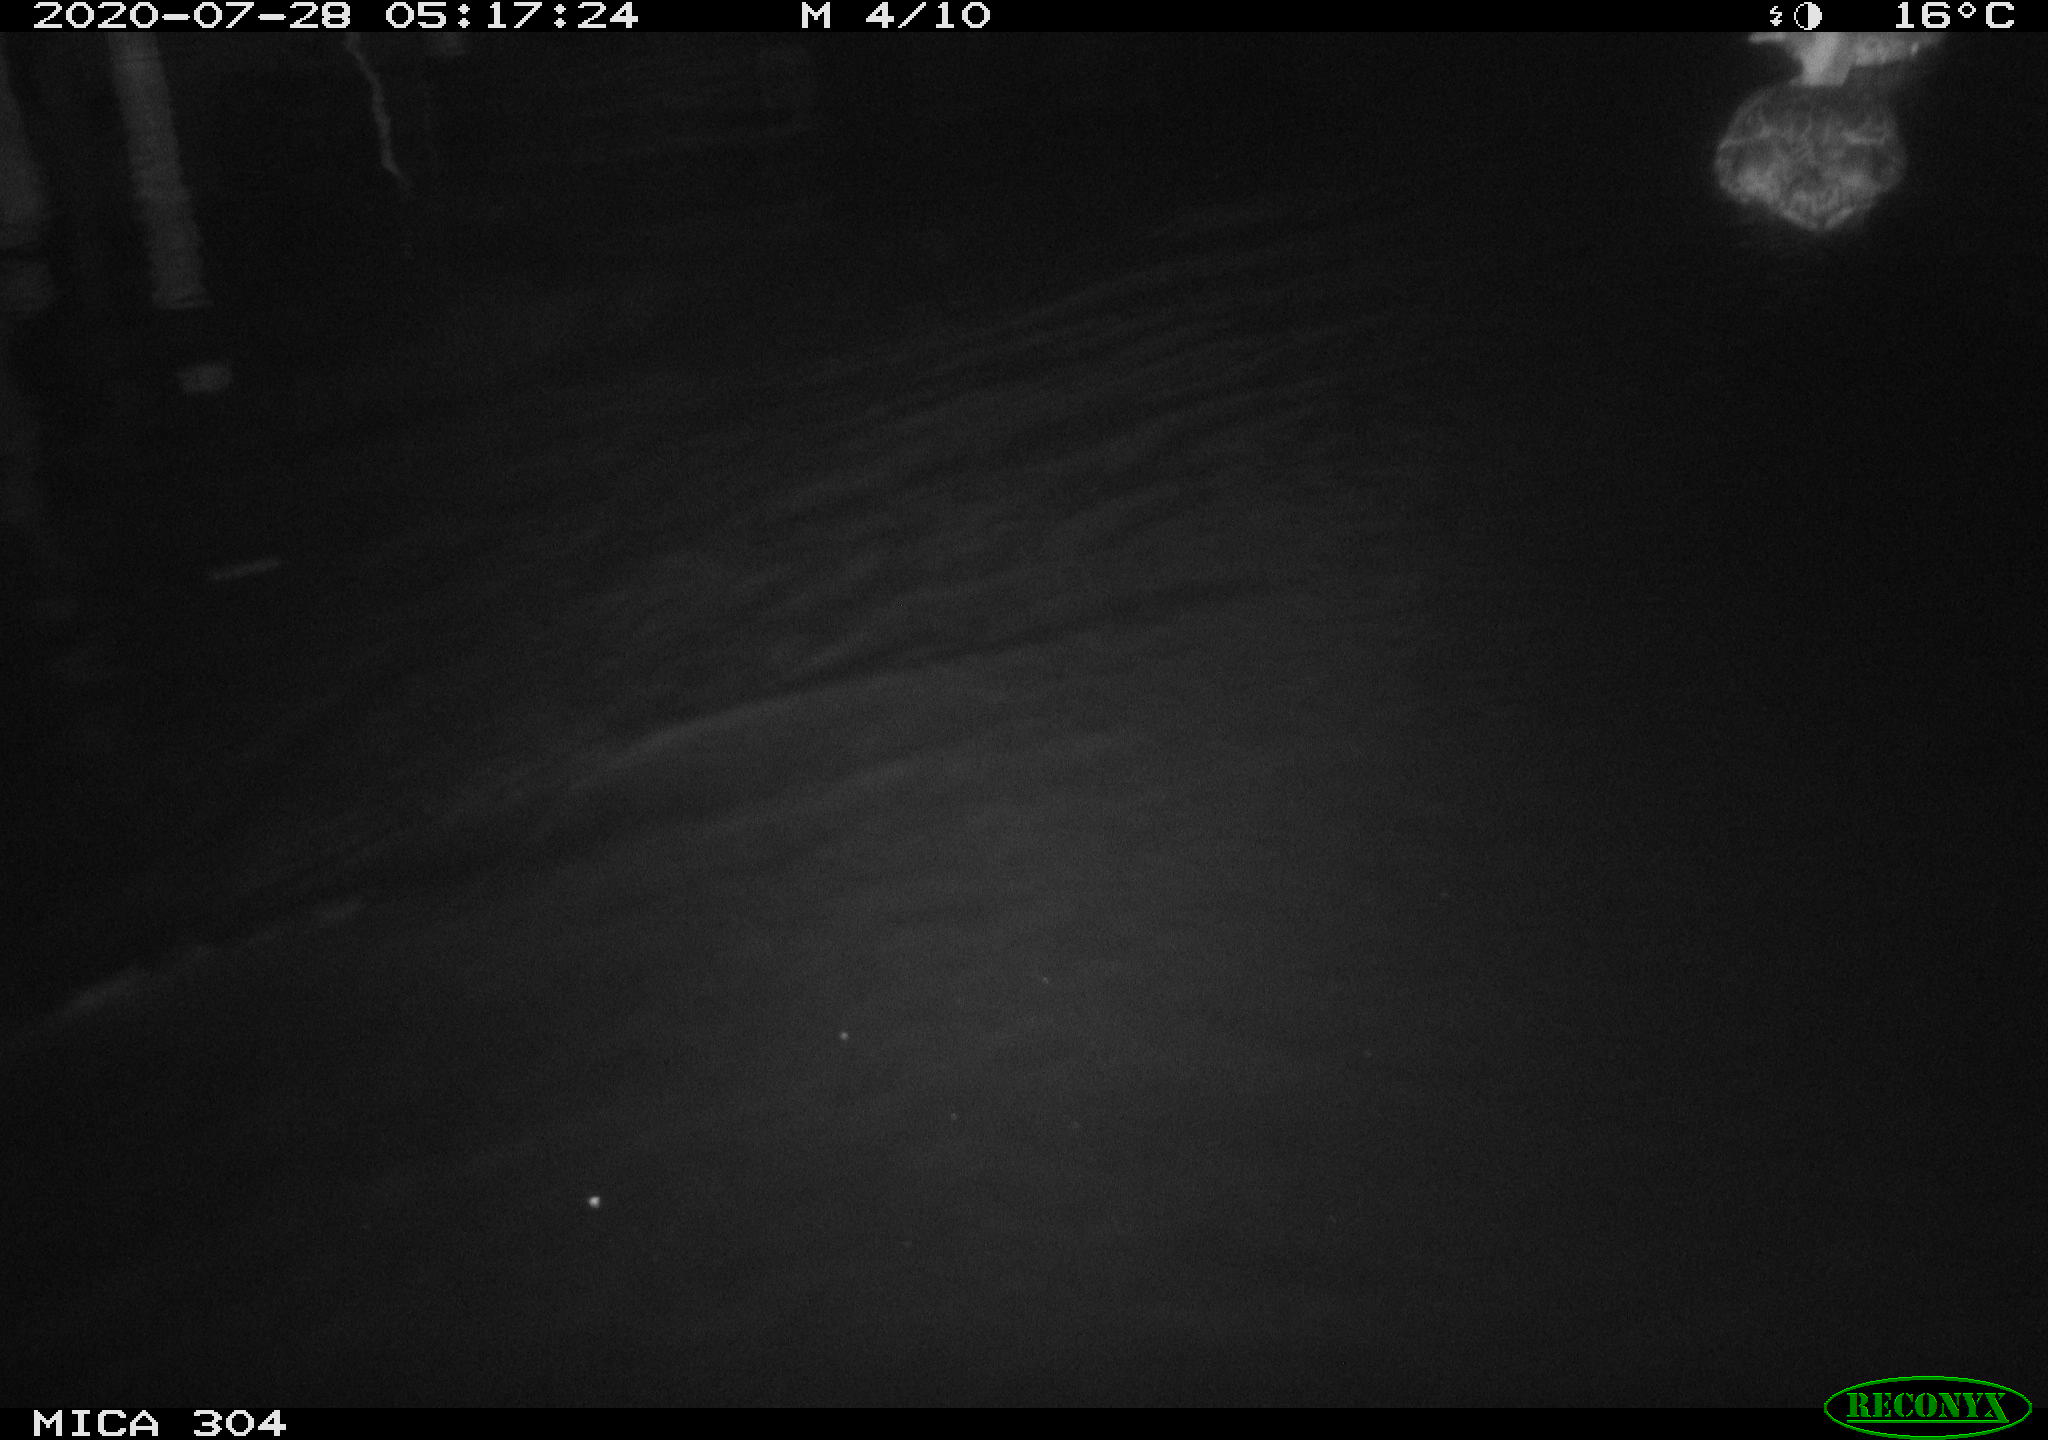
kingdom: Animalia
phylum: Chordata
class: Aves
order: Anseriformes
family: Anatidae
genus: Anas
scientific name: Anas platyrhynchos
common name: Mallard
